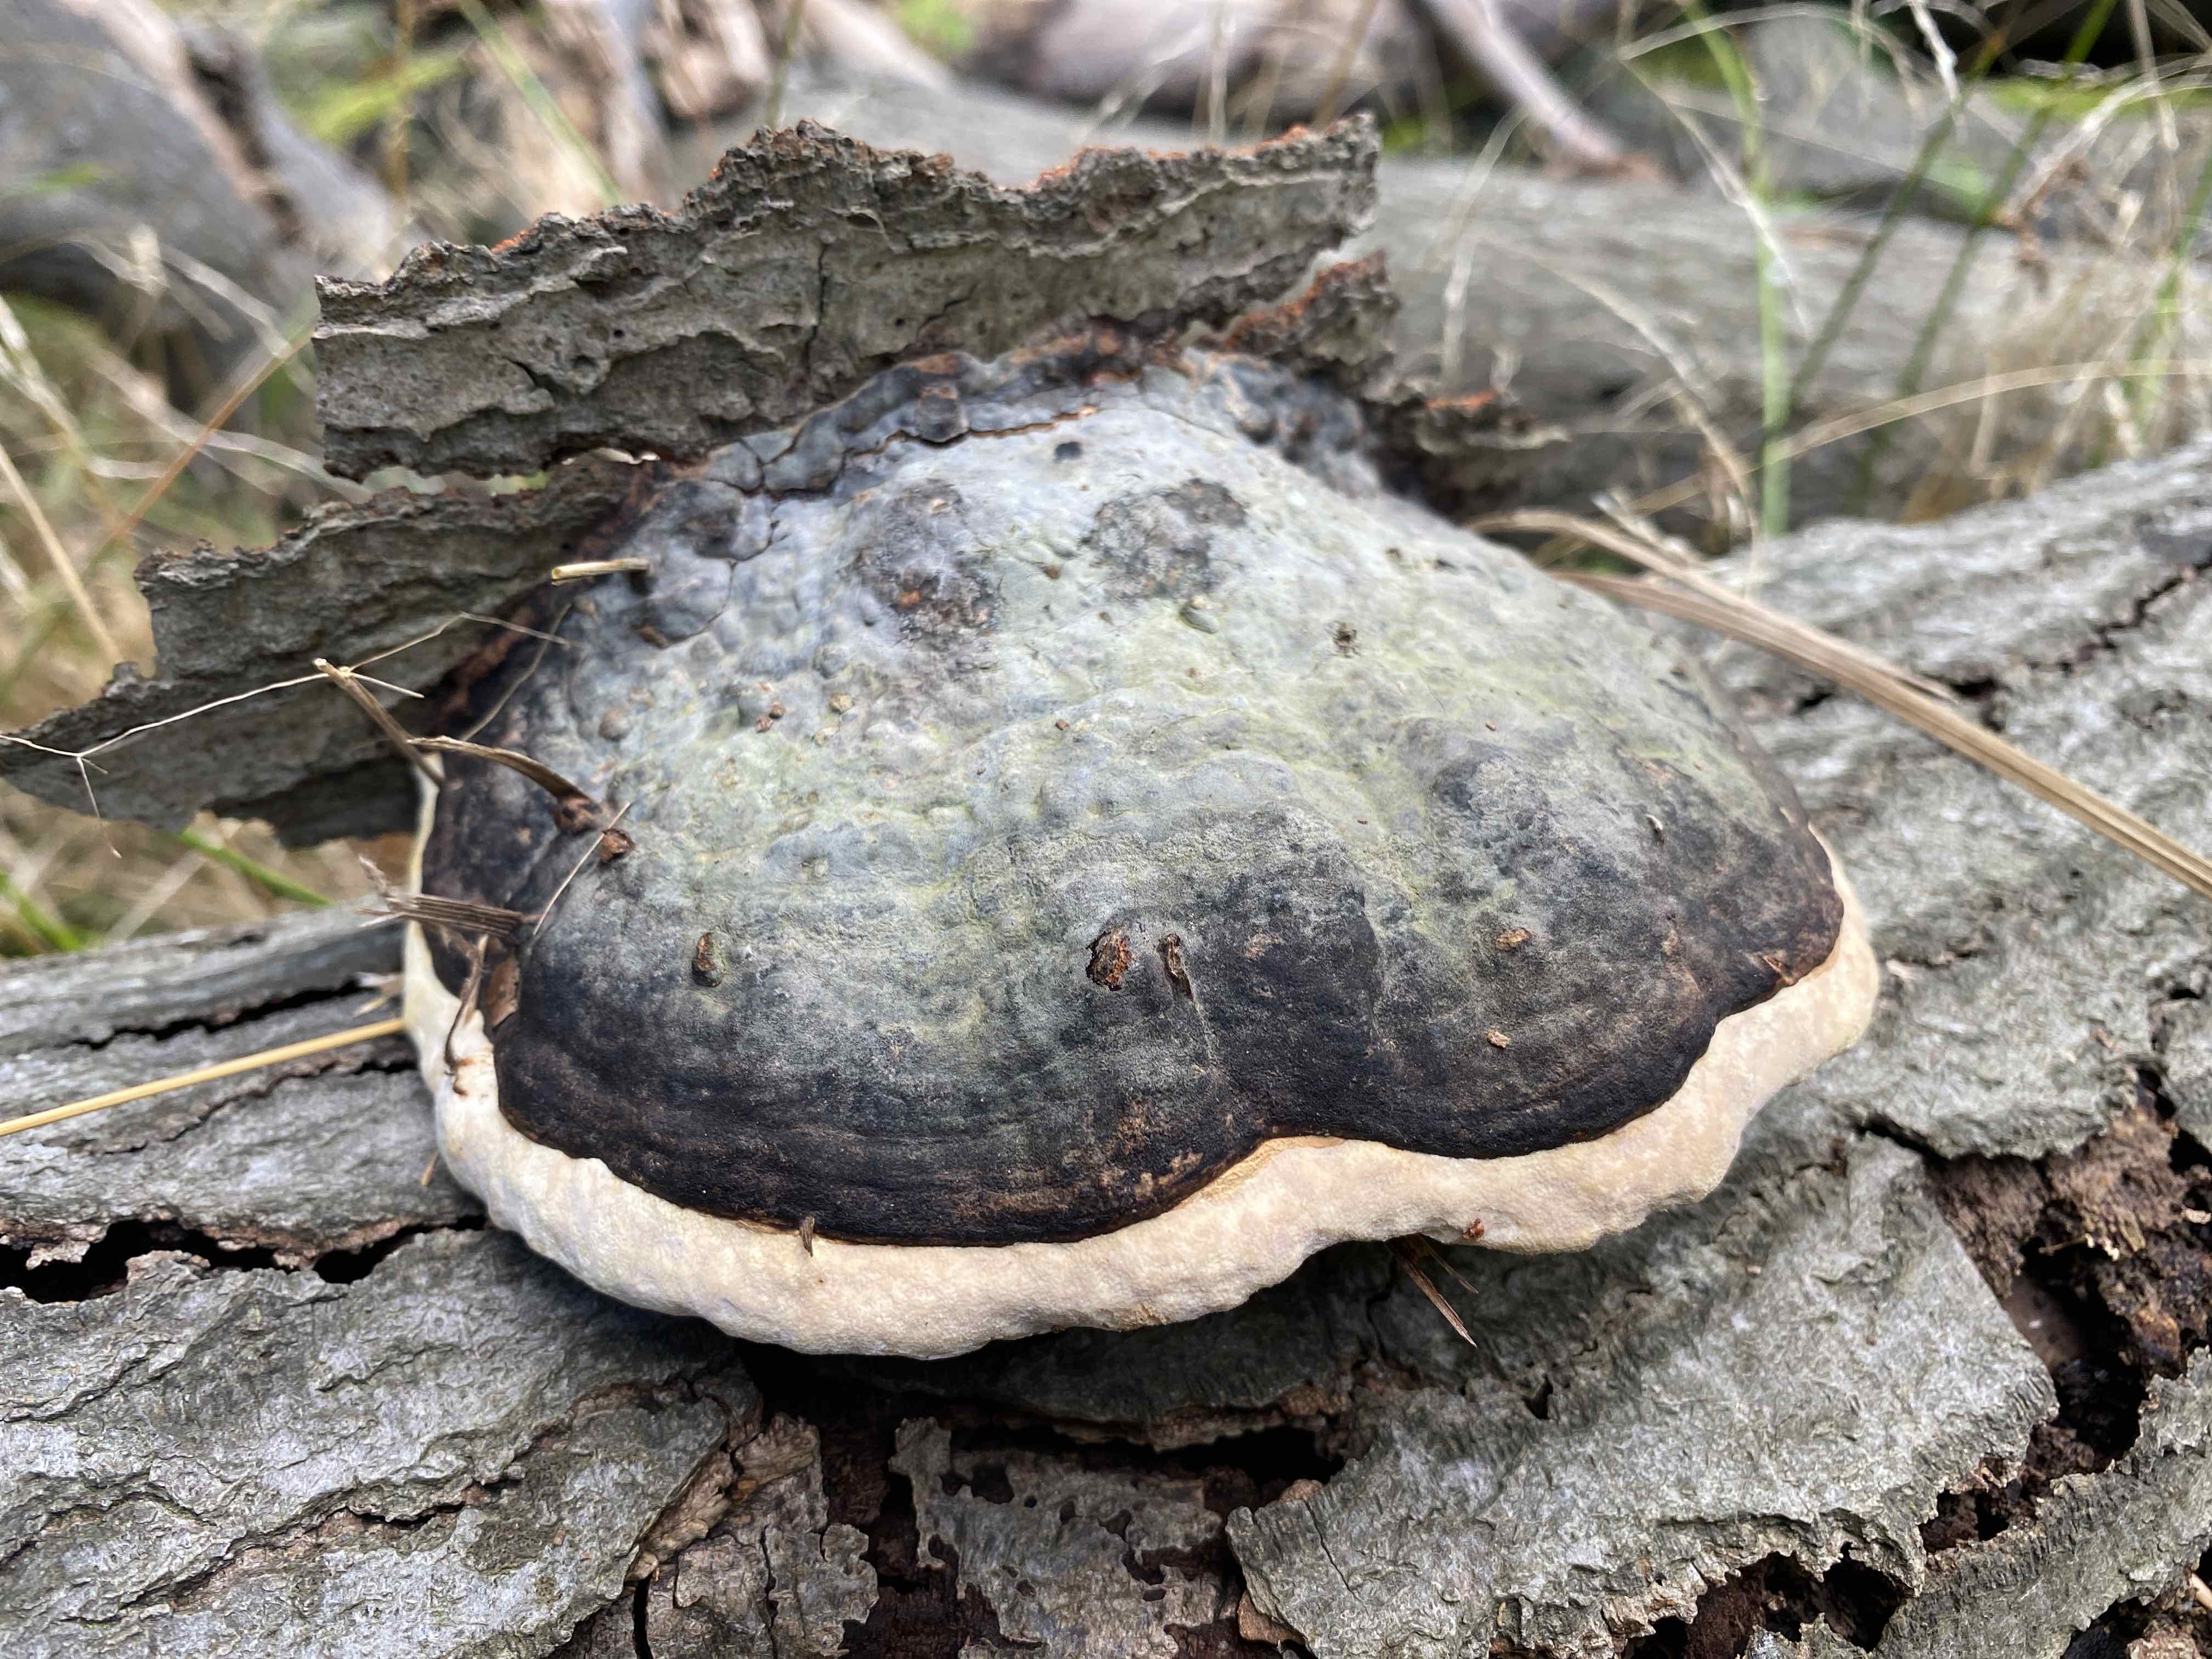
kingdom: Fungi
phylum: Basidiomycota
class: Agaricomycetes
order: Polyporales
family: Fomitopsidaceae
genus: Fomitopsis
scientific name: Fomitopsis pinicola
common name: randbæltet hovporesvamp
